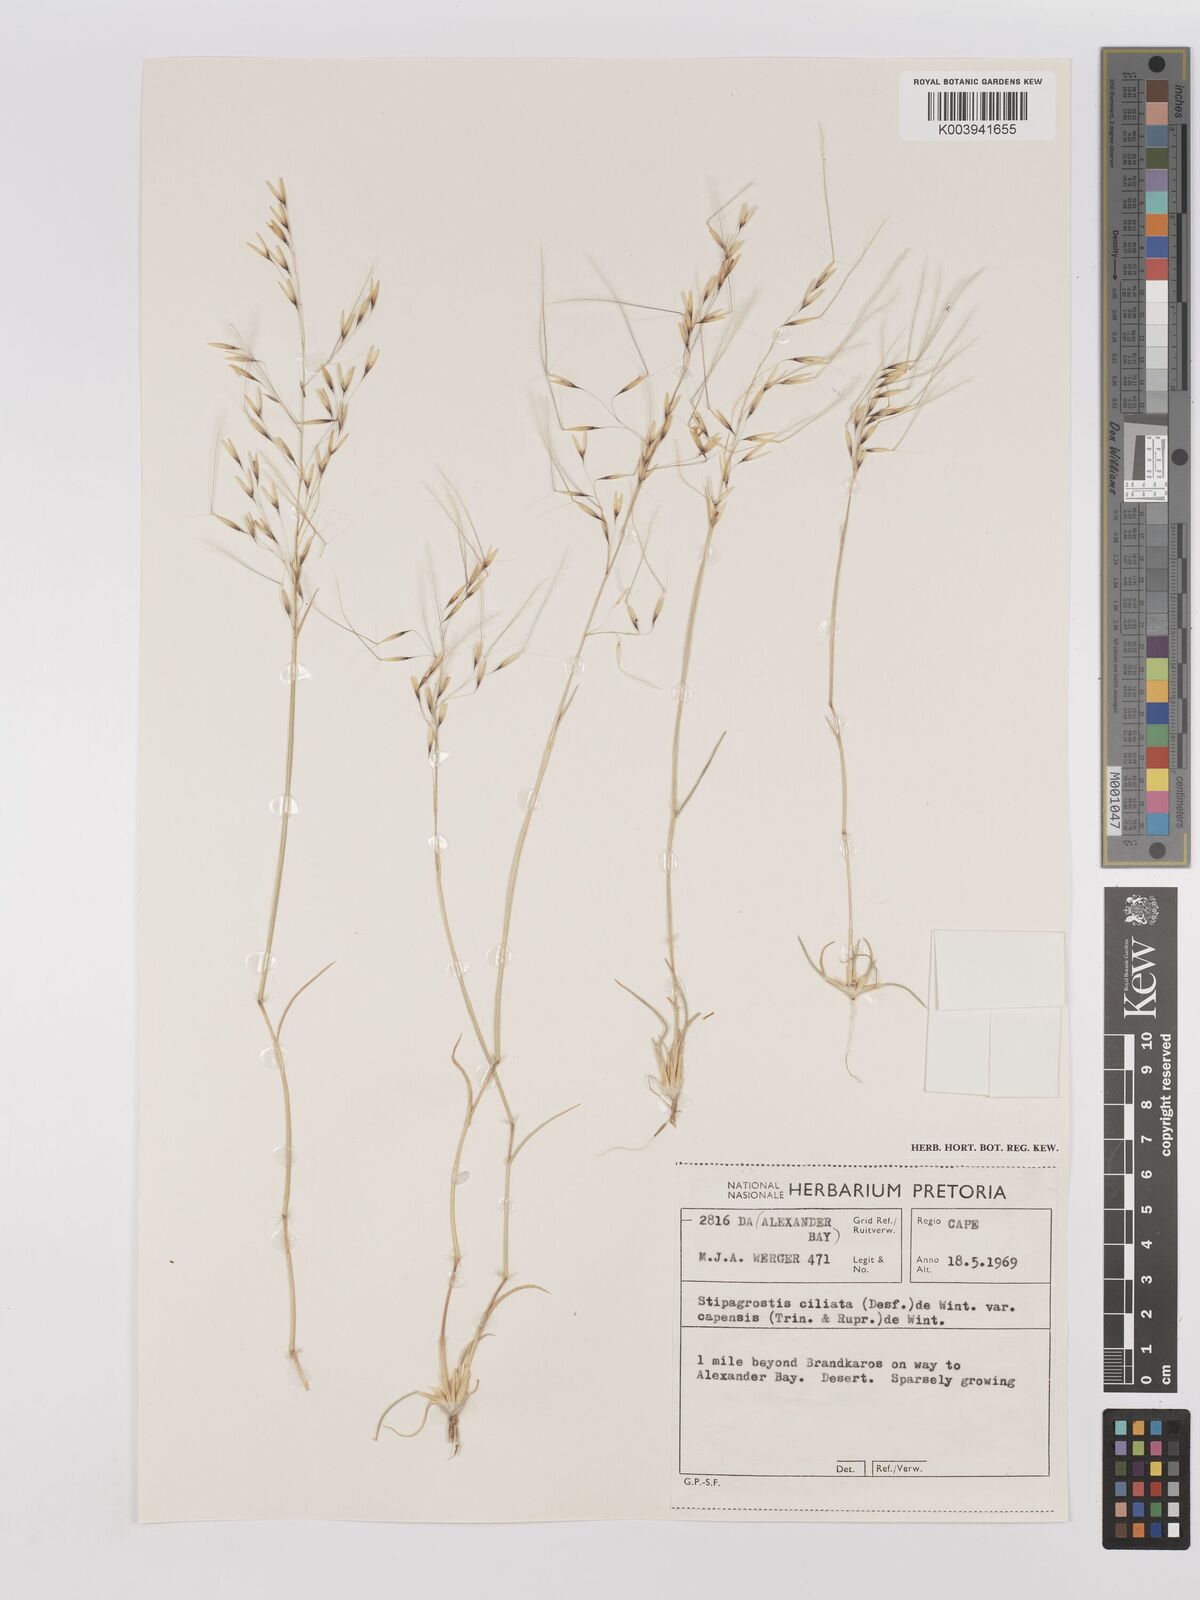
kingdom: Plantae
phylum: Tracheophyta
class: Liliopsida
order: Poales
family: Poaceae
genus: Stipagrostis
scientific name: Stipagrostis ciliata
